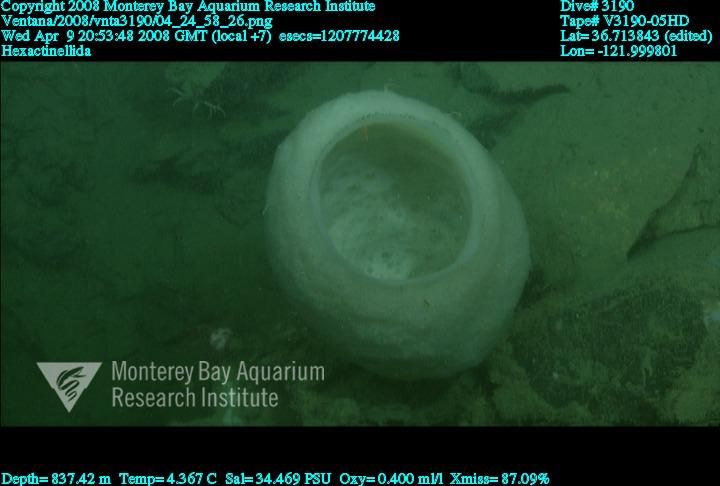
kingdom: Animalia
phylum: Porifera
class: Hexactinellida
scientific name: Hexactinellida
